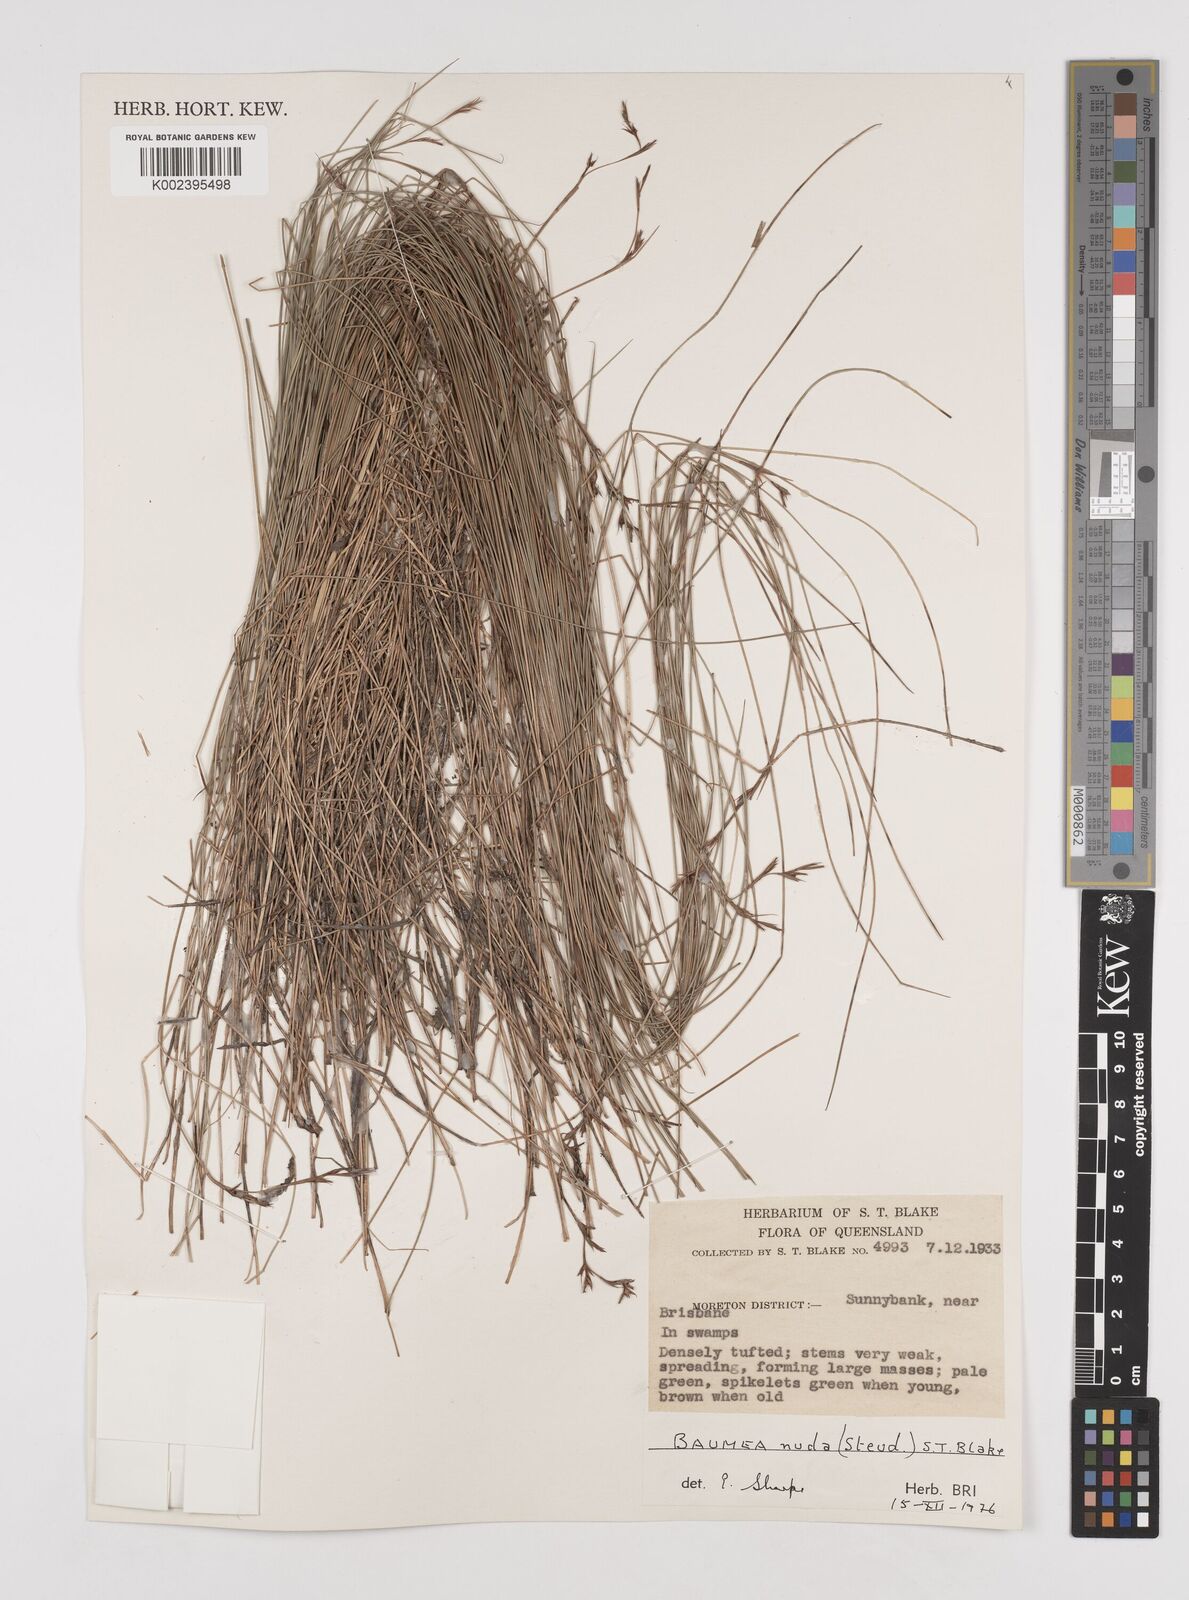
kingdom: Plantae
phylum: Tracheophyta
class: Liliopsida
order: Poales
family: Cyperaceae
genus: Machaerina
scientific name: Machaerina nuda
